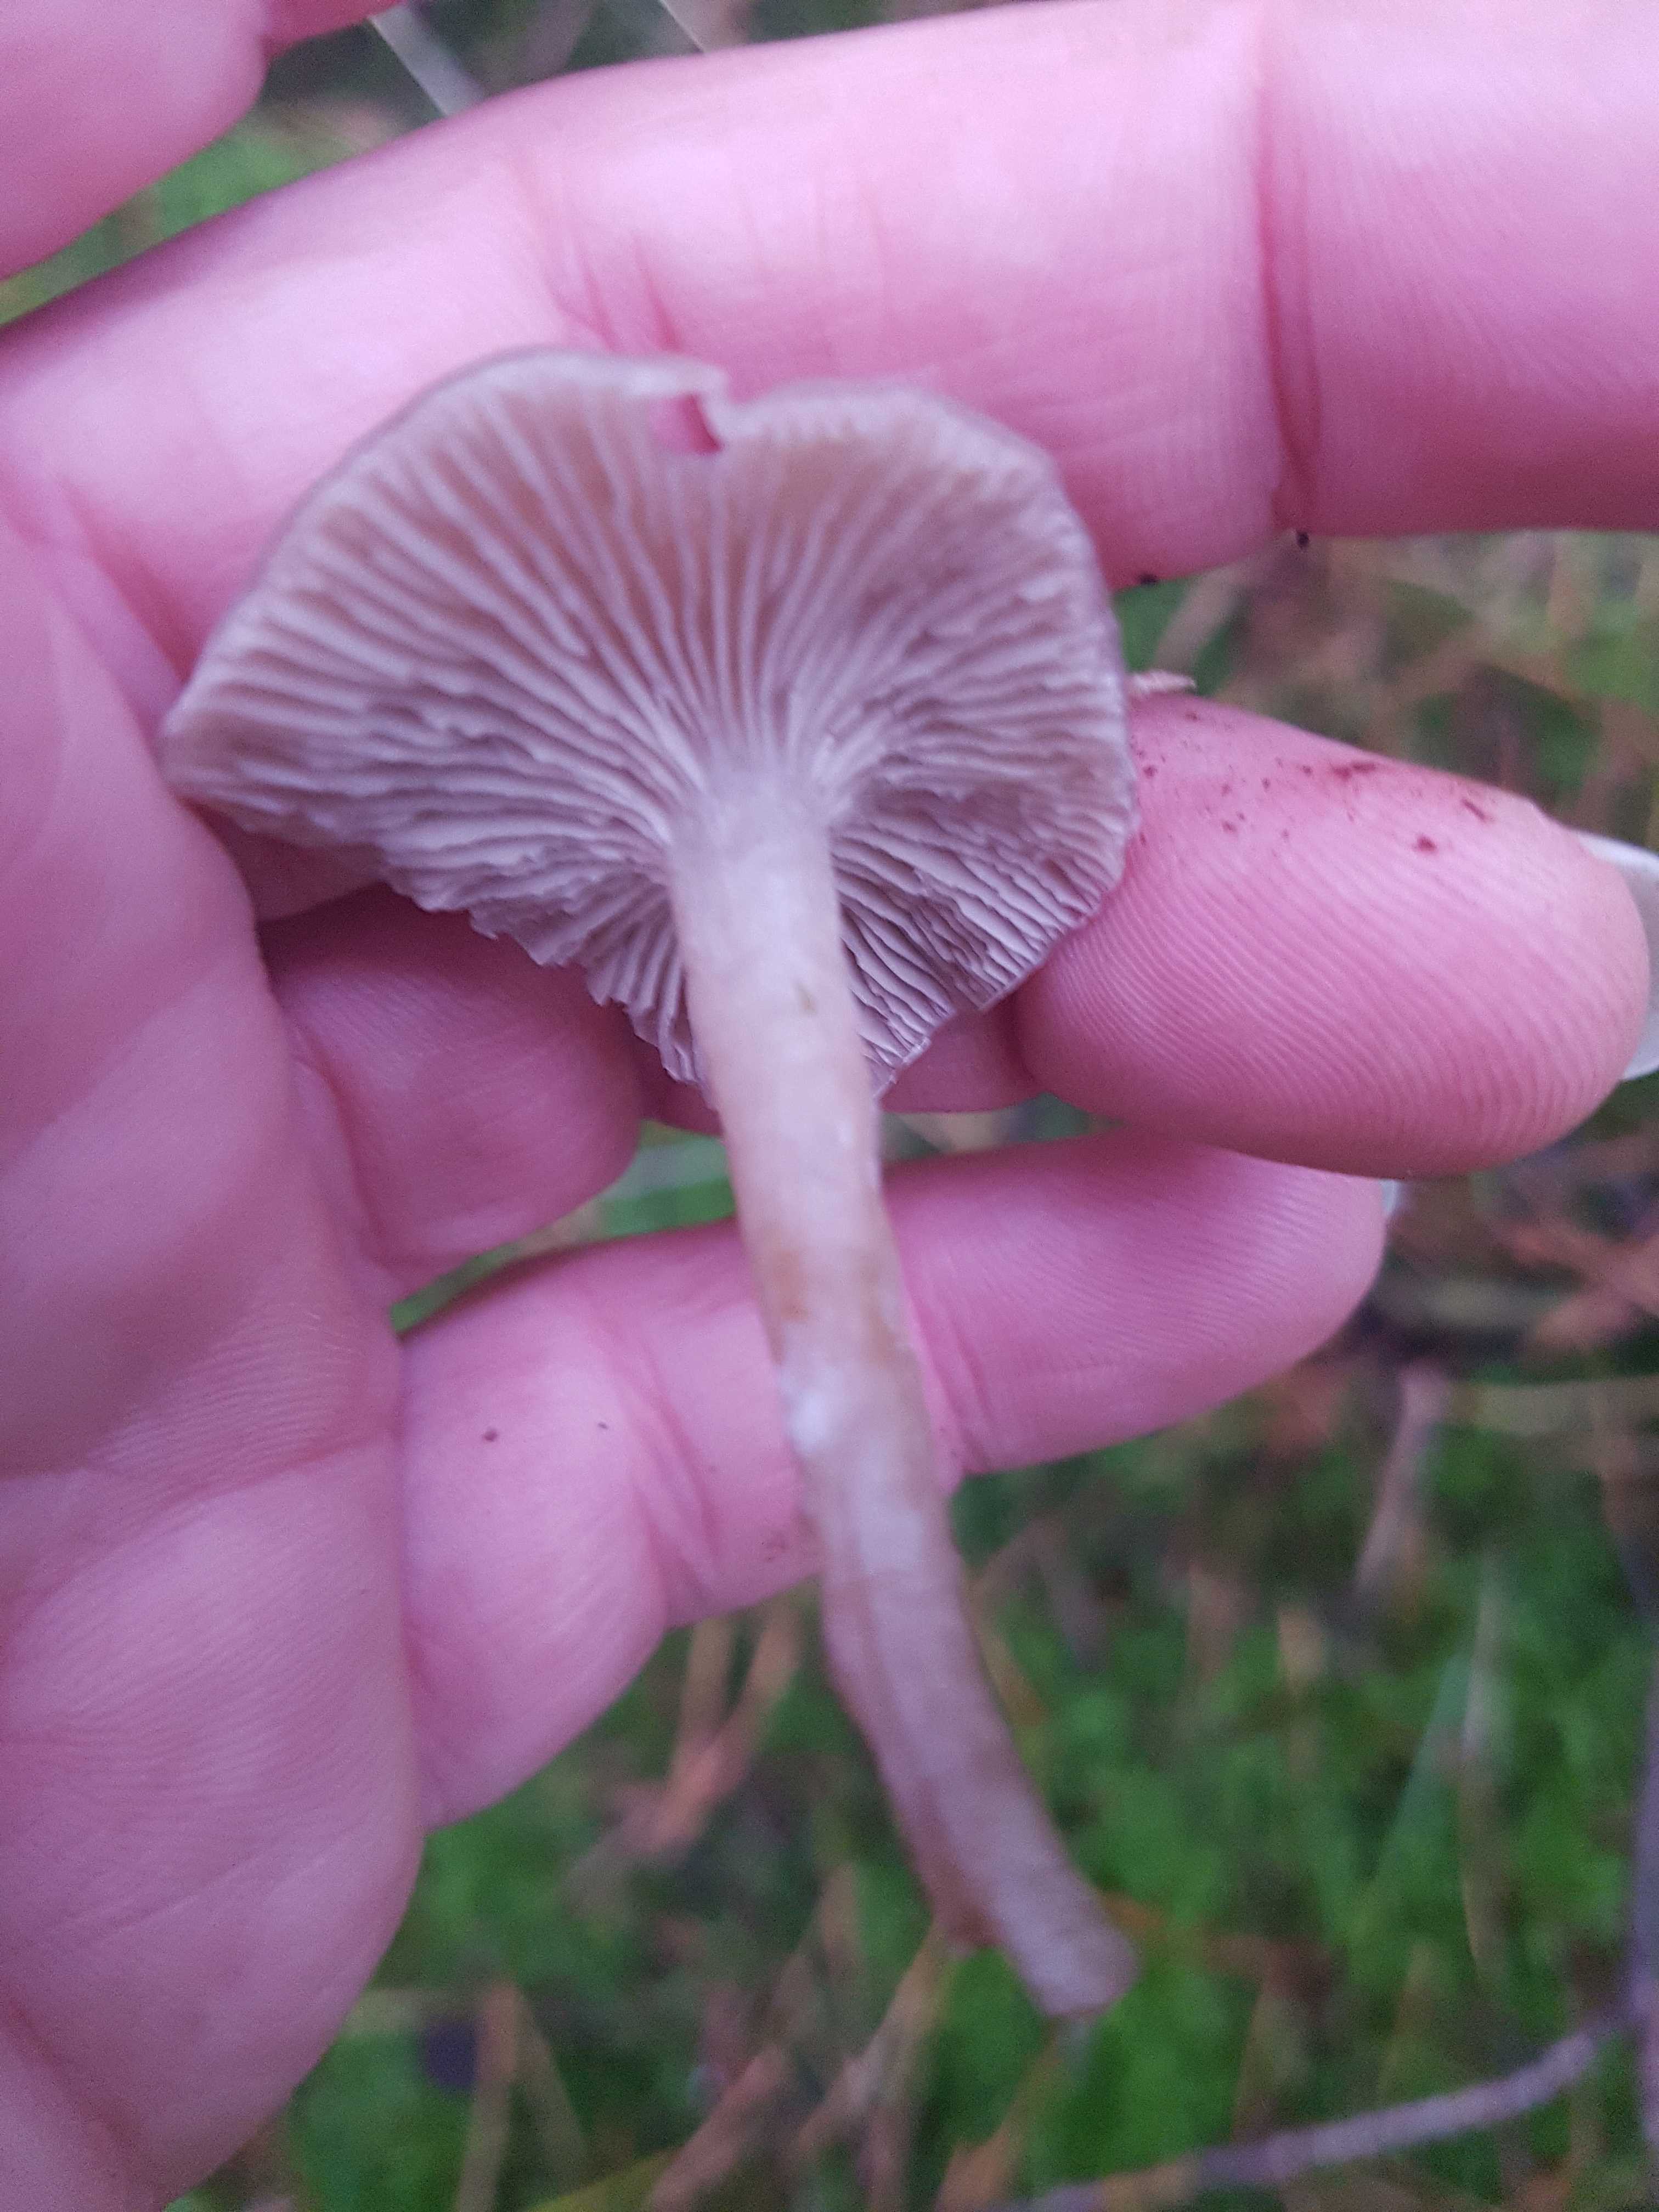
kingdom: Fungi
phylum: Basidiomycota
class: Agaricomycetes
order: Agaricales
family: Tricholomataceae
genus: Clitocybe
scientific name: Clitocybe
